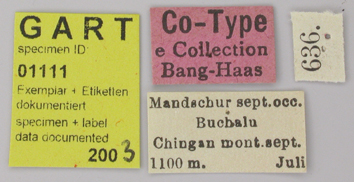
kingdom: Animalia
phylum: Arthropoda
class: Insecta
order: Lepidoptera
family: Papilionidae
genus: Parnassius
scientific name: Parnassius bremeri
